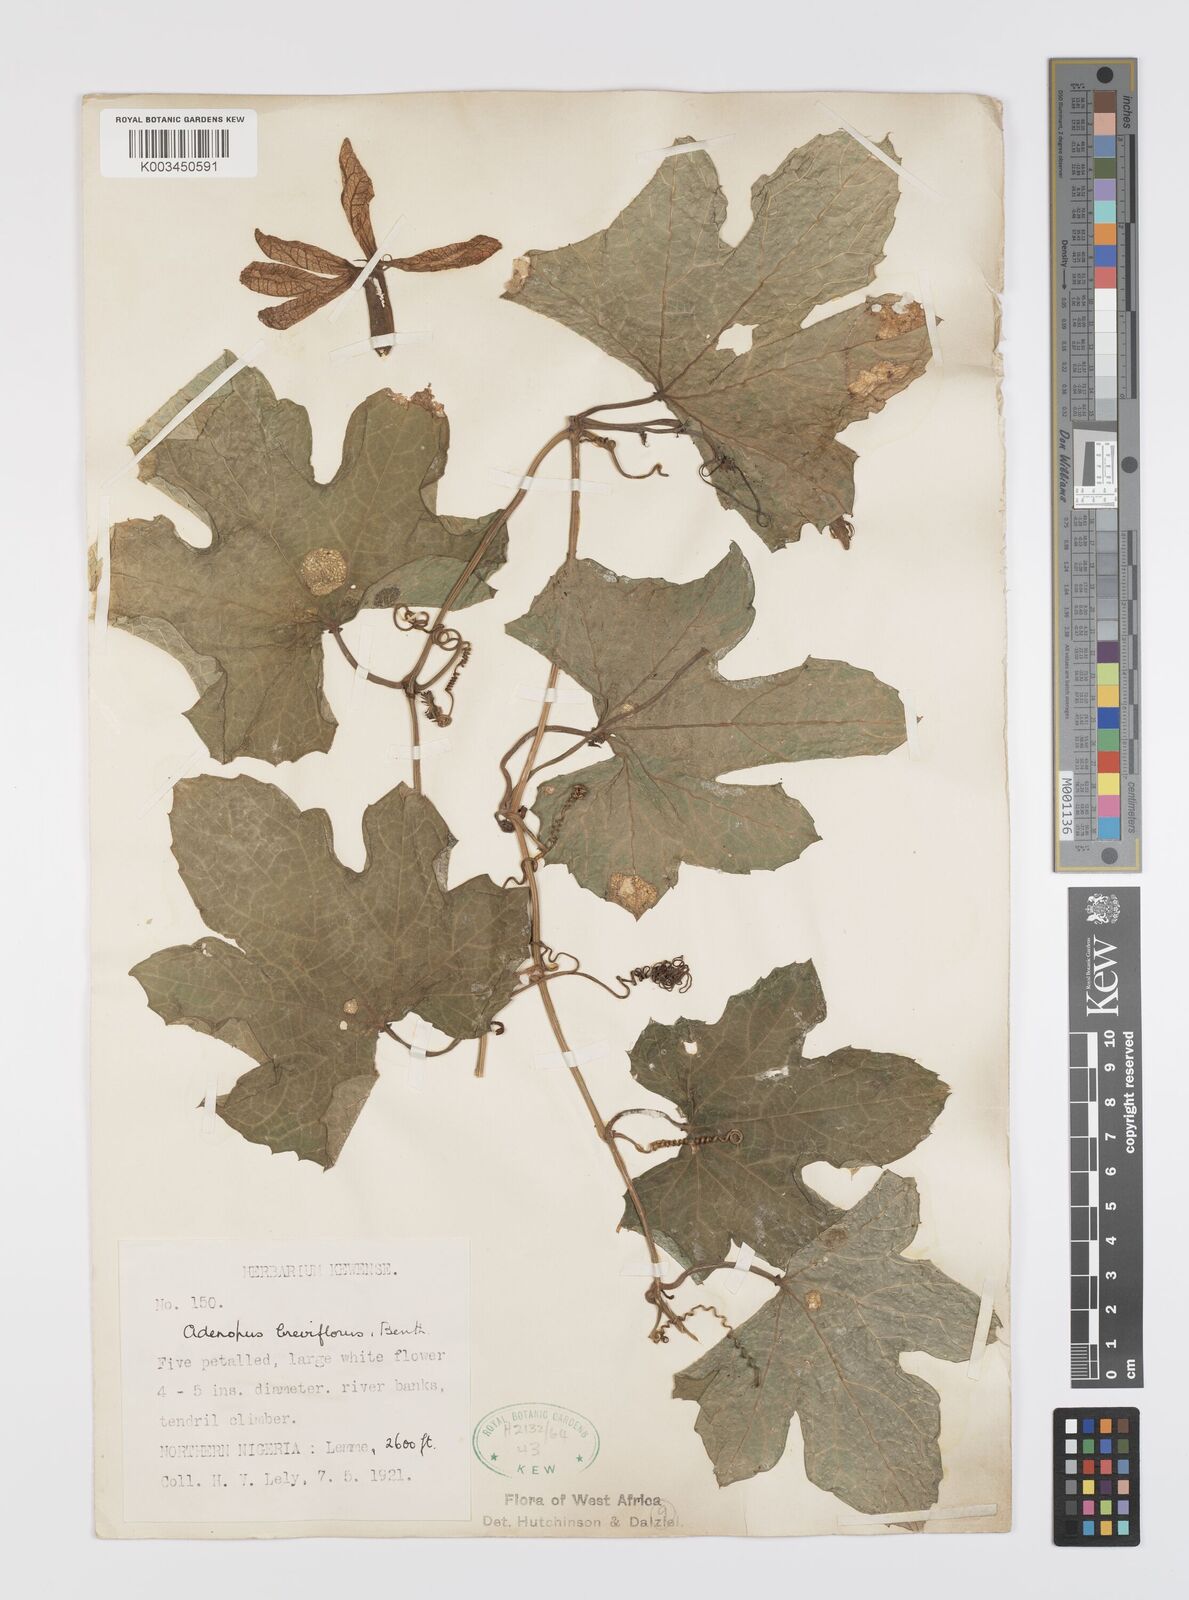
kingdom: Plantae
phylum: Tracheophyta
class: Magnoliopsida
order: Cucurbitales
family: Cucurbitaceae
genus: Lagenaria
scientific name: Lagenaria breviflora
